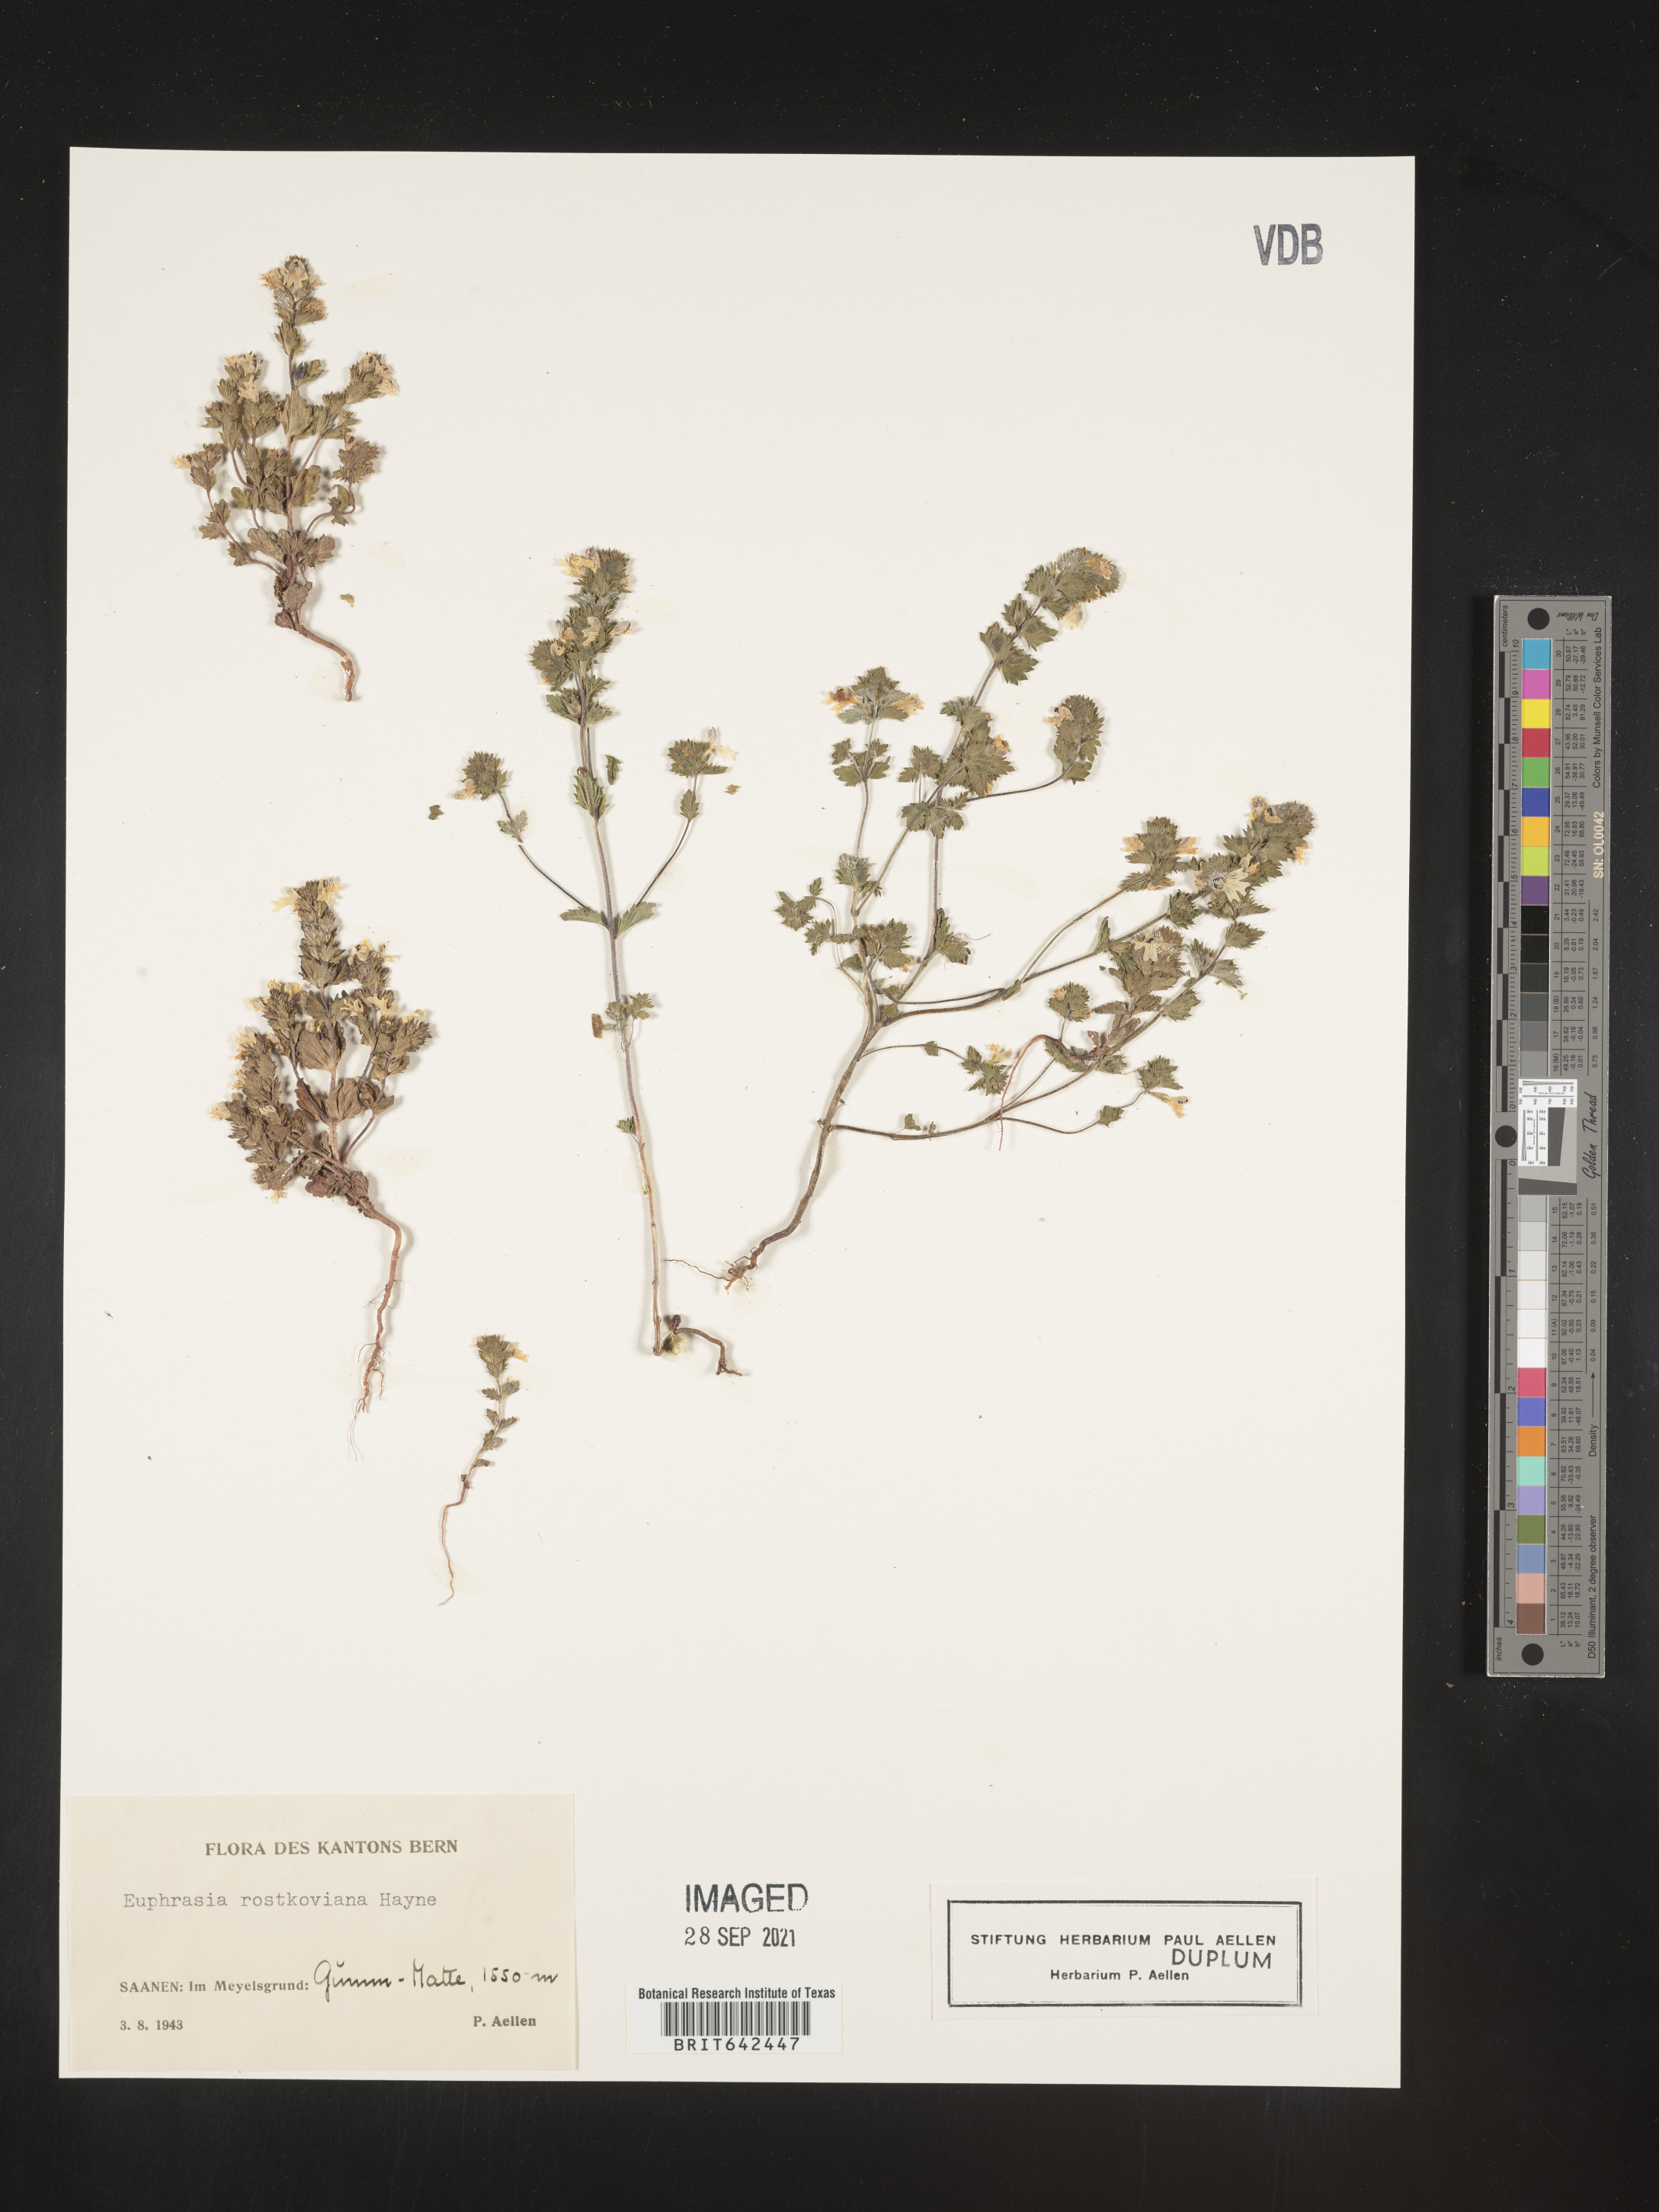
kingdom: Plantae
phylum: Tracheophyta
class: Magnoliopsida
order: Lamiales
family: Orobanchaceae
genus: Euphrasia
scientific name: Euphrasia
